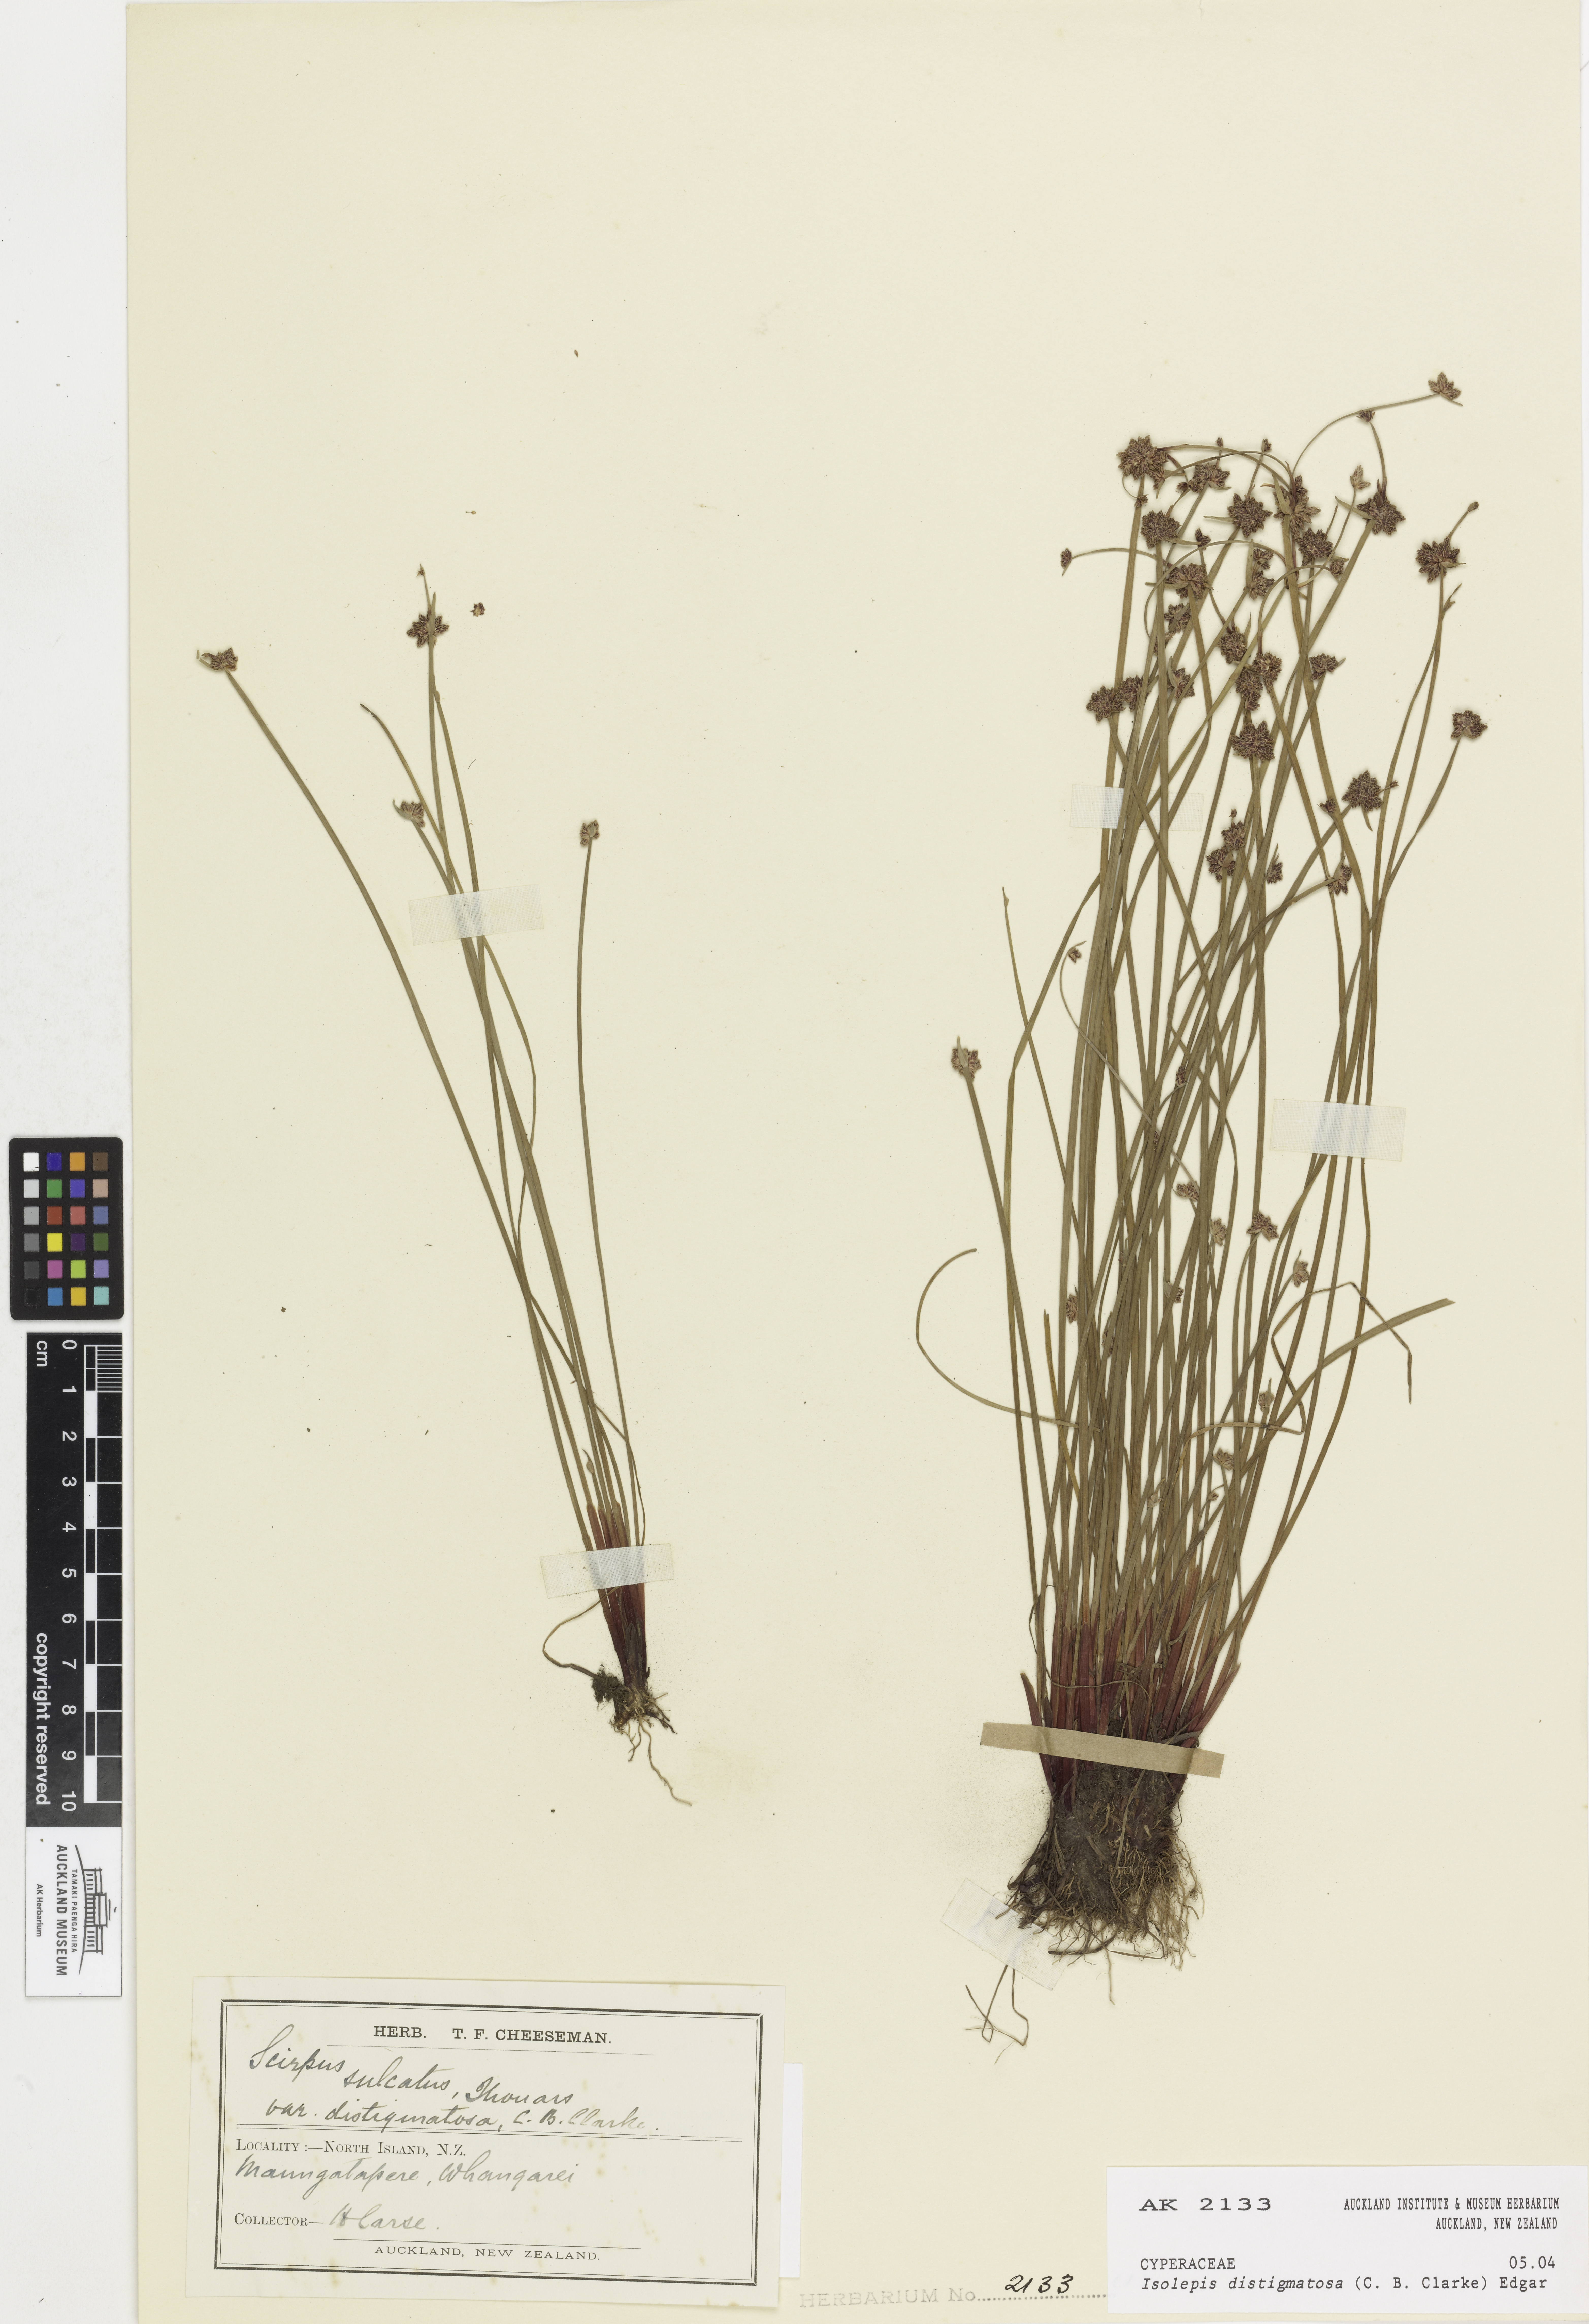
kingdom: Plantae
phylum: Tracheophyta
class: Liliopsida
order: Poales
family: Cyperaceae
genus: Isolepis
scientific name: Isolepis distigmatosa
